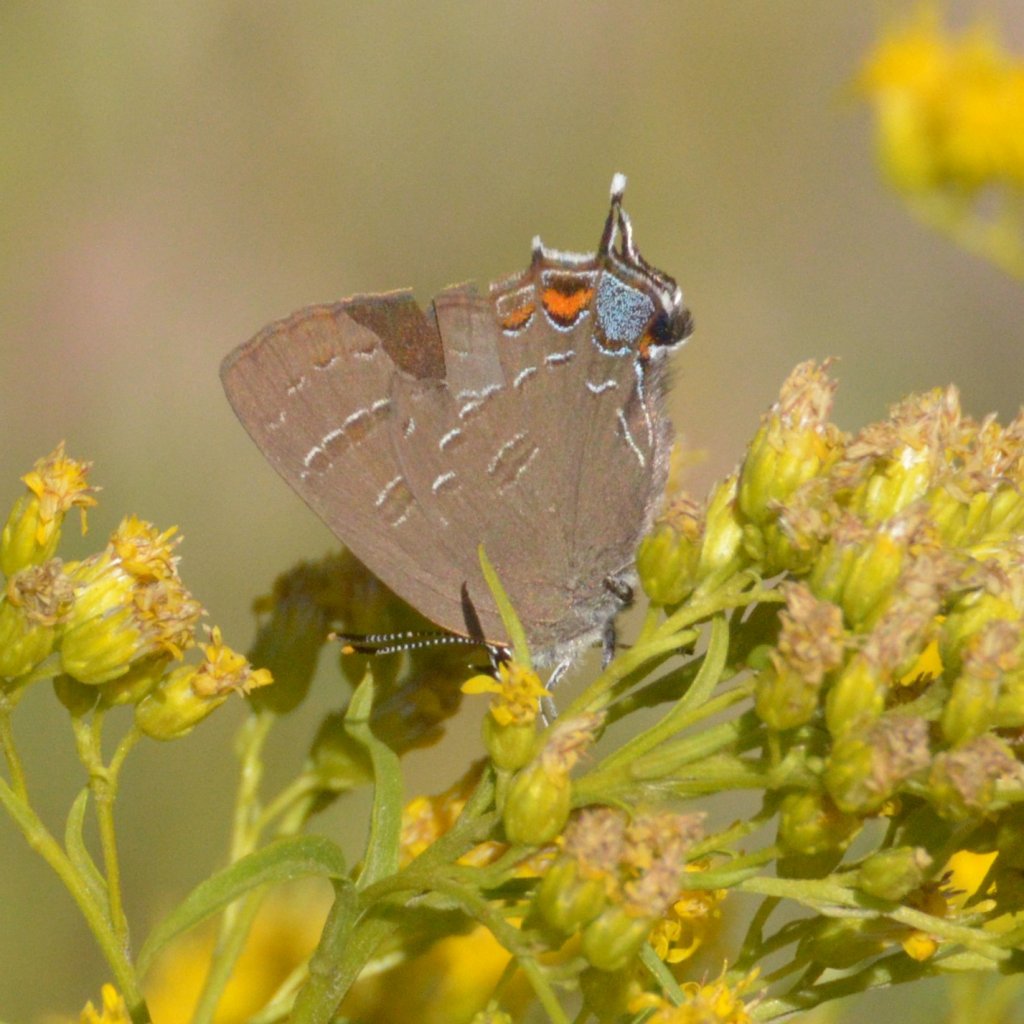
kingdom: Animalia
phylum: Arthropoda
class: Insecta
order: Lepidoptera
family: Lycaenidae
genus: Satyrium
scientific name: Satyrium calanus
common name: Banded Hairstreak
